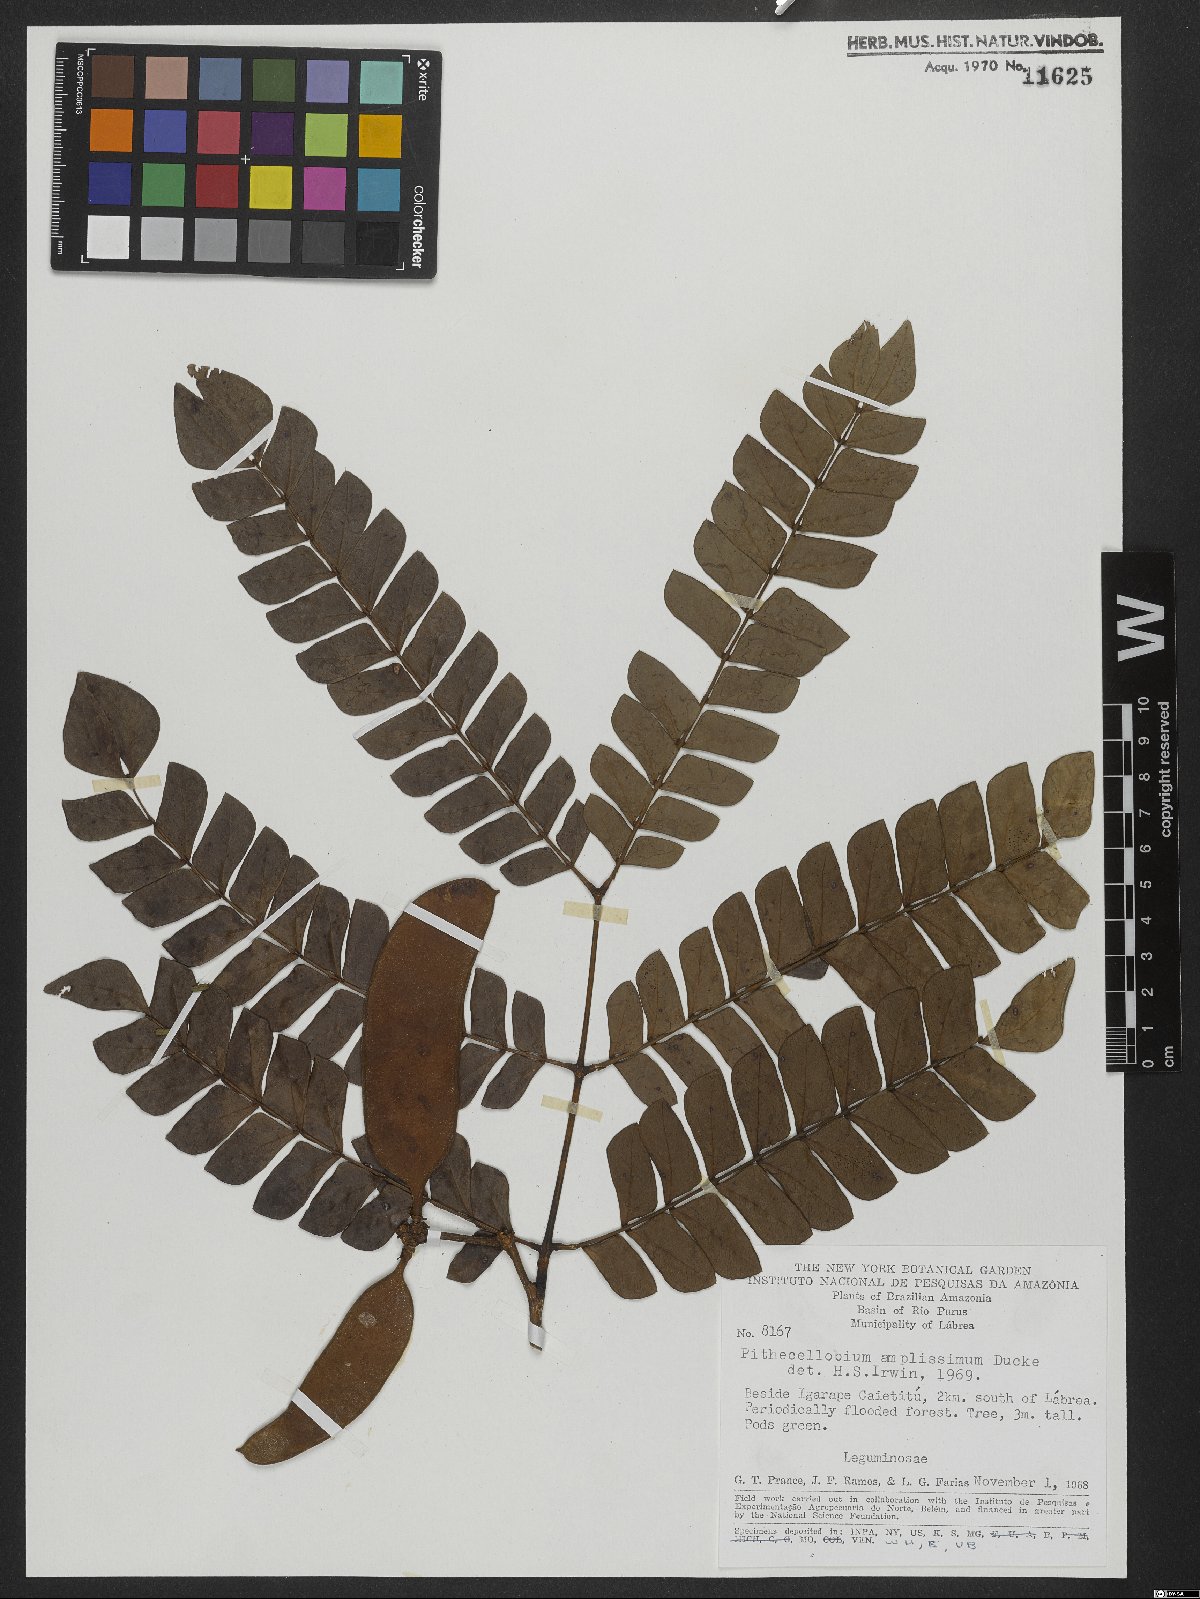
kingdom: Plantae
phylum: Tracheophyta
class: Magnoliopsida
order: Fabales
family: Fabaceae
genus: Macrosamanea
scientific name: Macrosamanea amplissima
